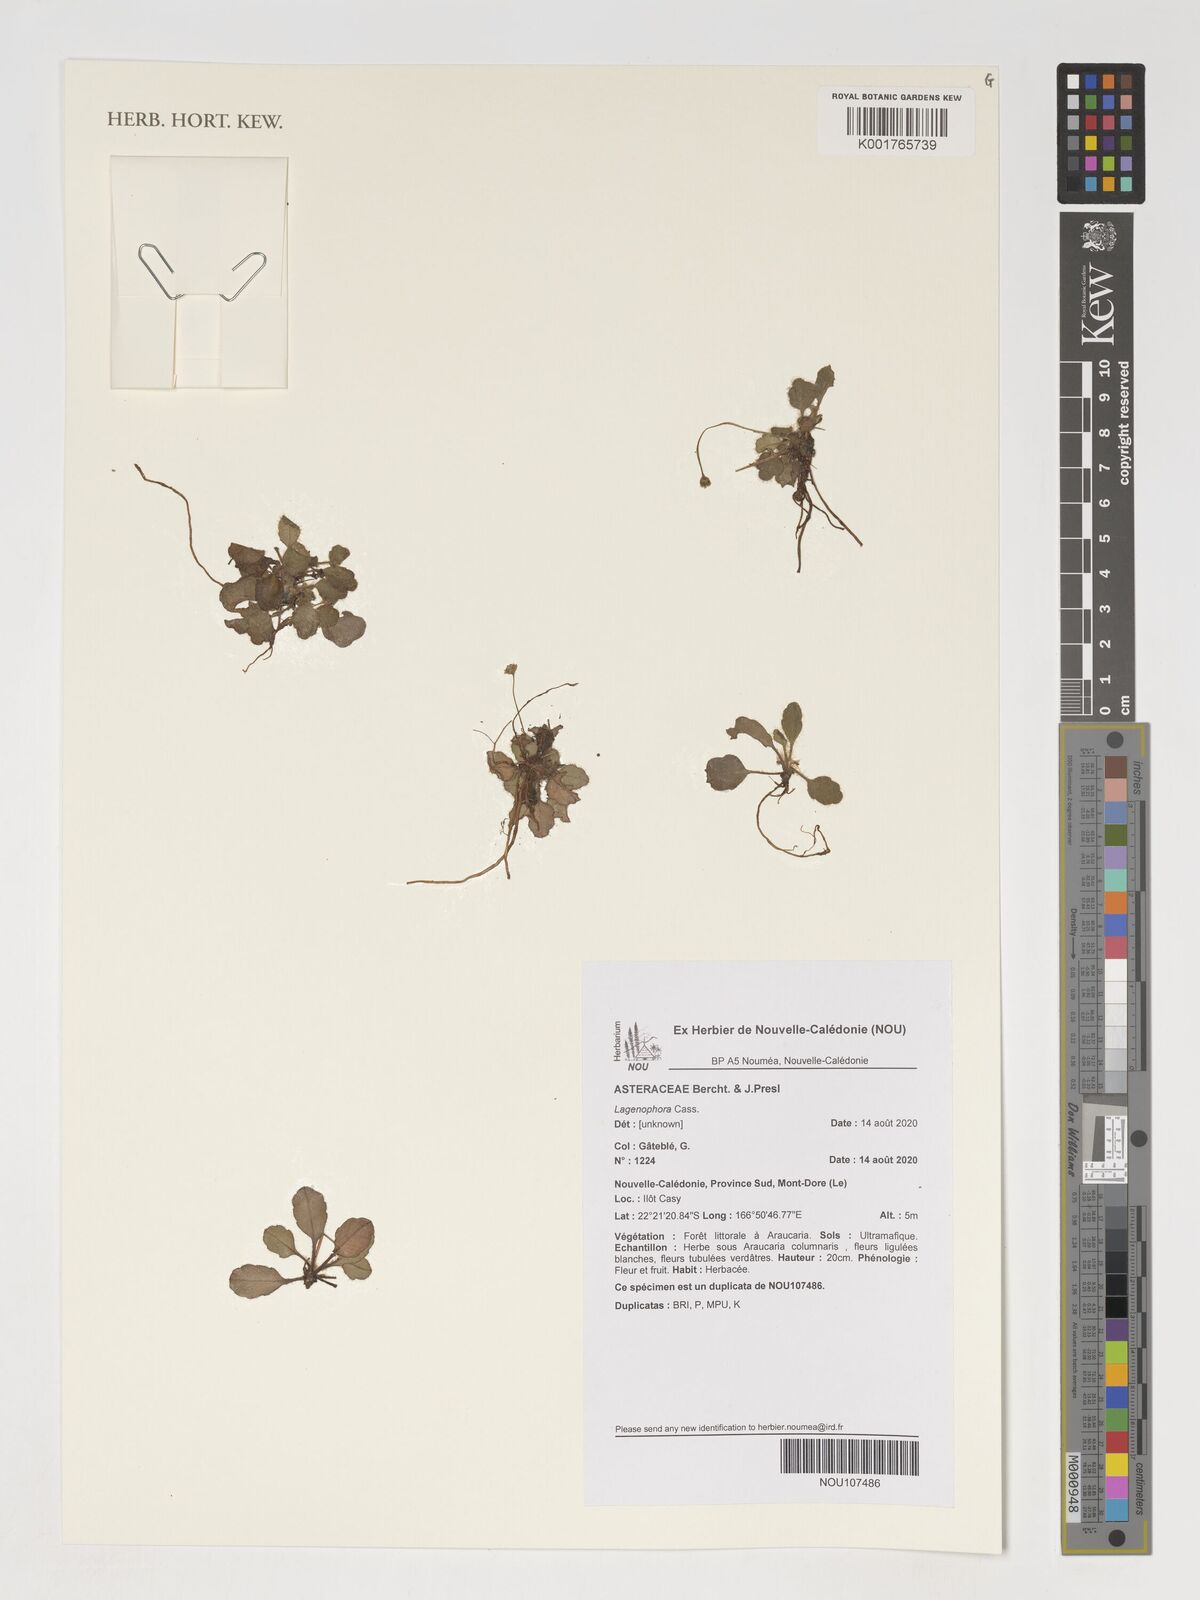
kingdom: Plantae
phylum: Tracheophyta
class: Magnoliopsida
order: Asterales
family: Asteraceae
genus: Lagenophora
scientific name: Lagenophora
